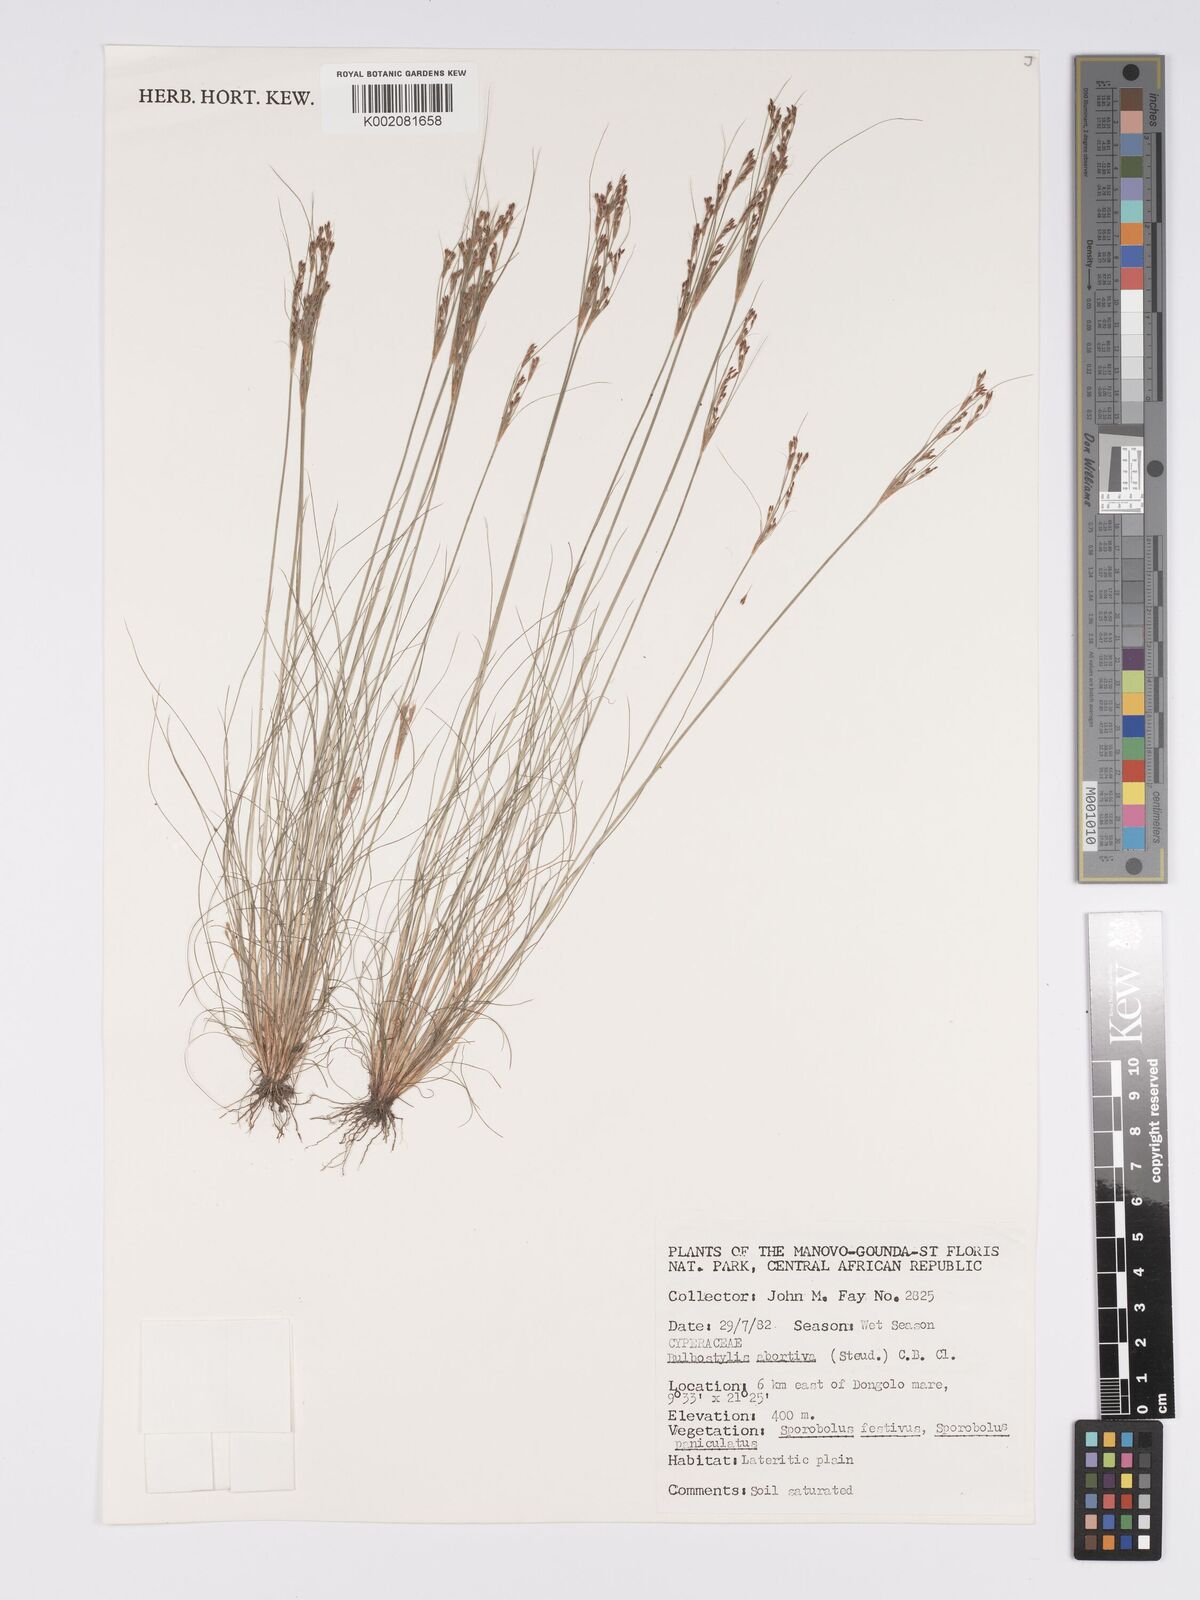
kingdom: Plantae
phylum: Tracheophyta
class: Liliopsida
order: Poales
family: Cyperaceae
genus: Bulbostylis
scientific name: Bulbostylis abortiva
